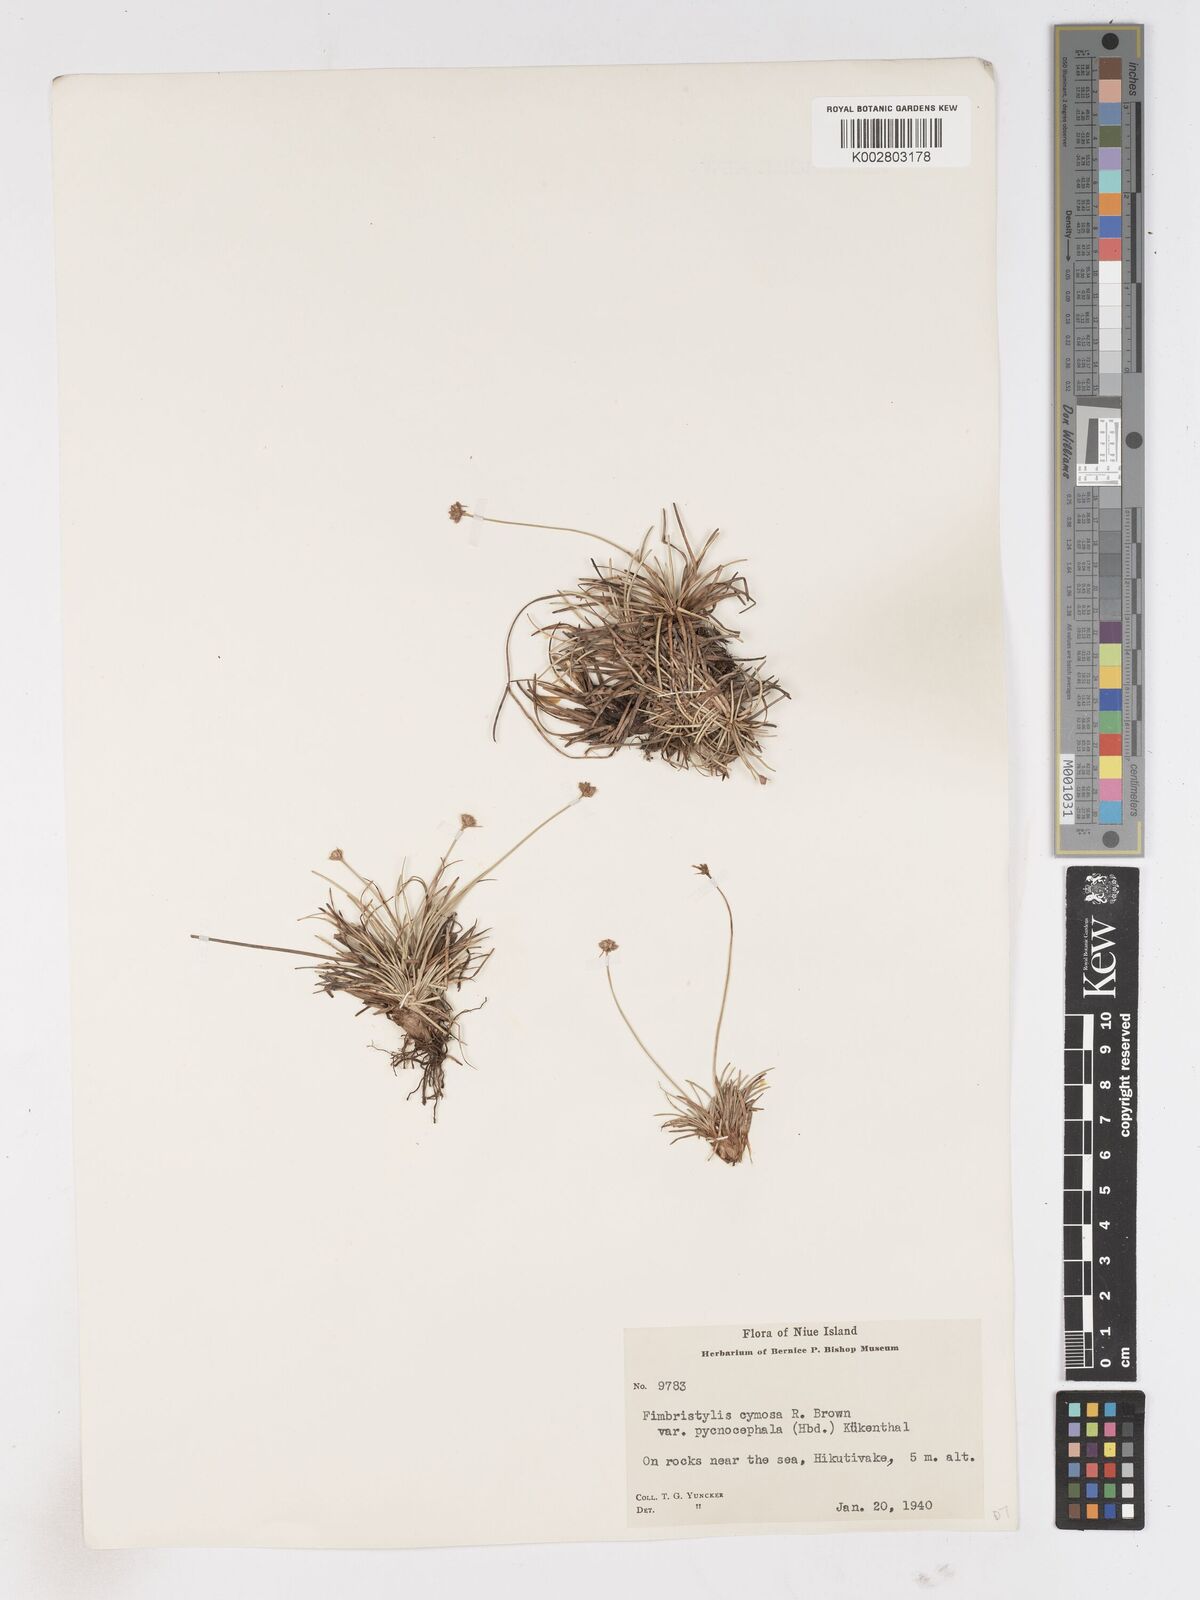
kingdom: Plantae
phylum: Tracheophyta
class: Liliopsida
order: Poales
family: Cyperaceae
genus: Fimbristylis
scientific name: Fimbristylis cymosa
